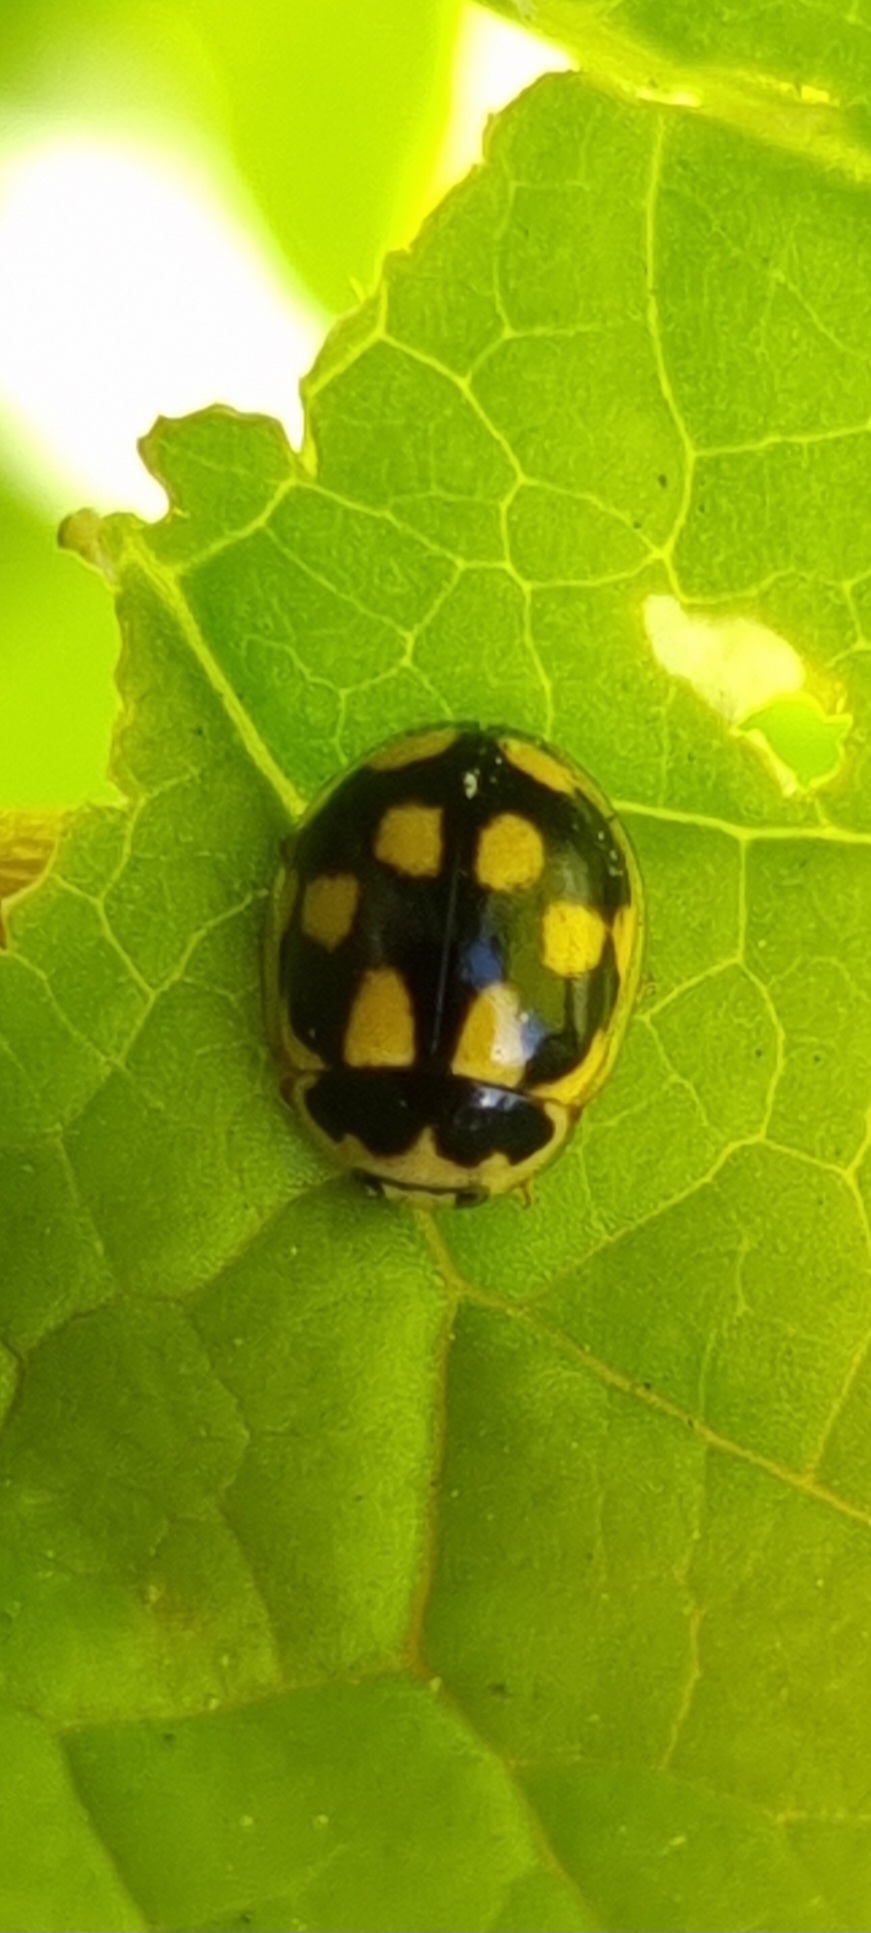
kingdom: Animalia
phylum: Arthropoda
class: Insecta
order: Coleoptera
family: Coccinellidae
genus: Propylaea
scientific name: Propylaea quatuordecimpunctata
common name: Skakbræt
